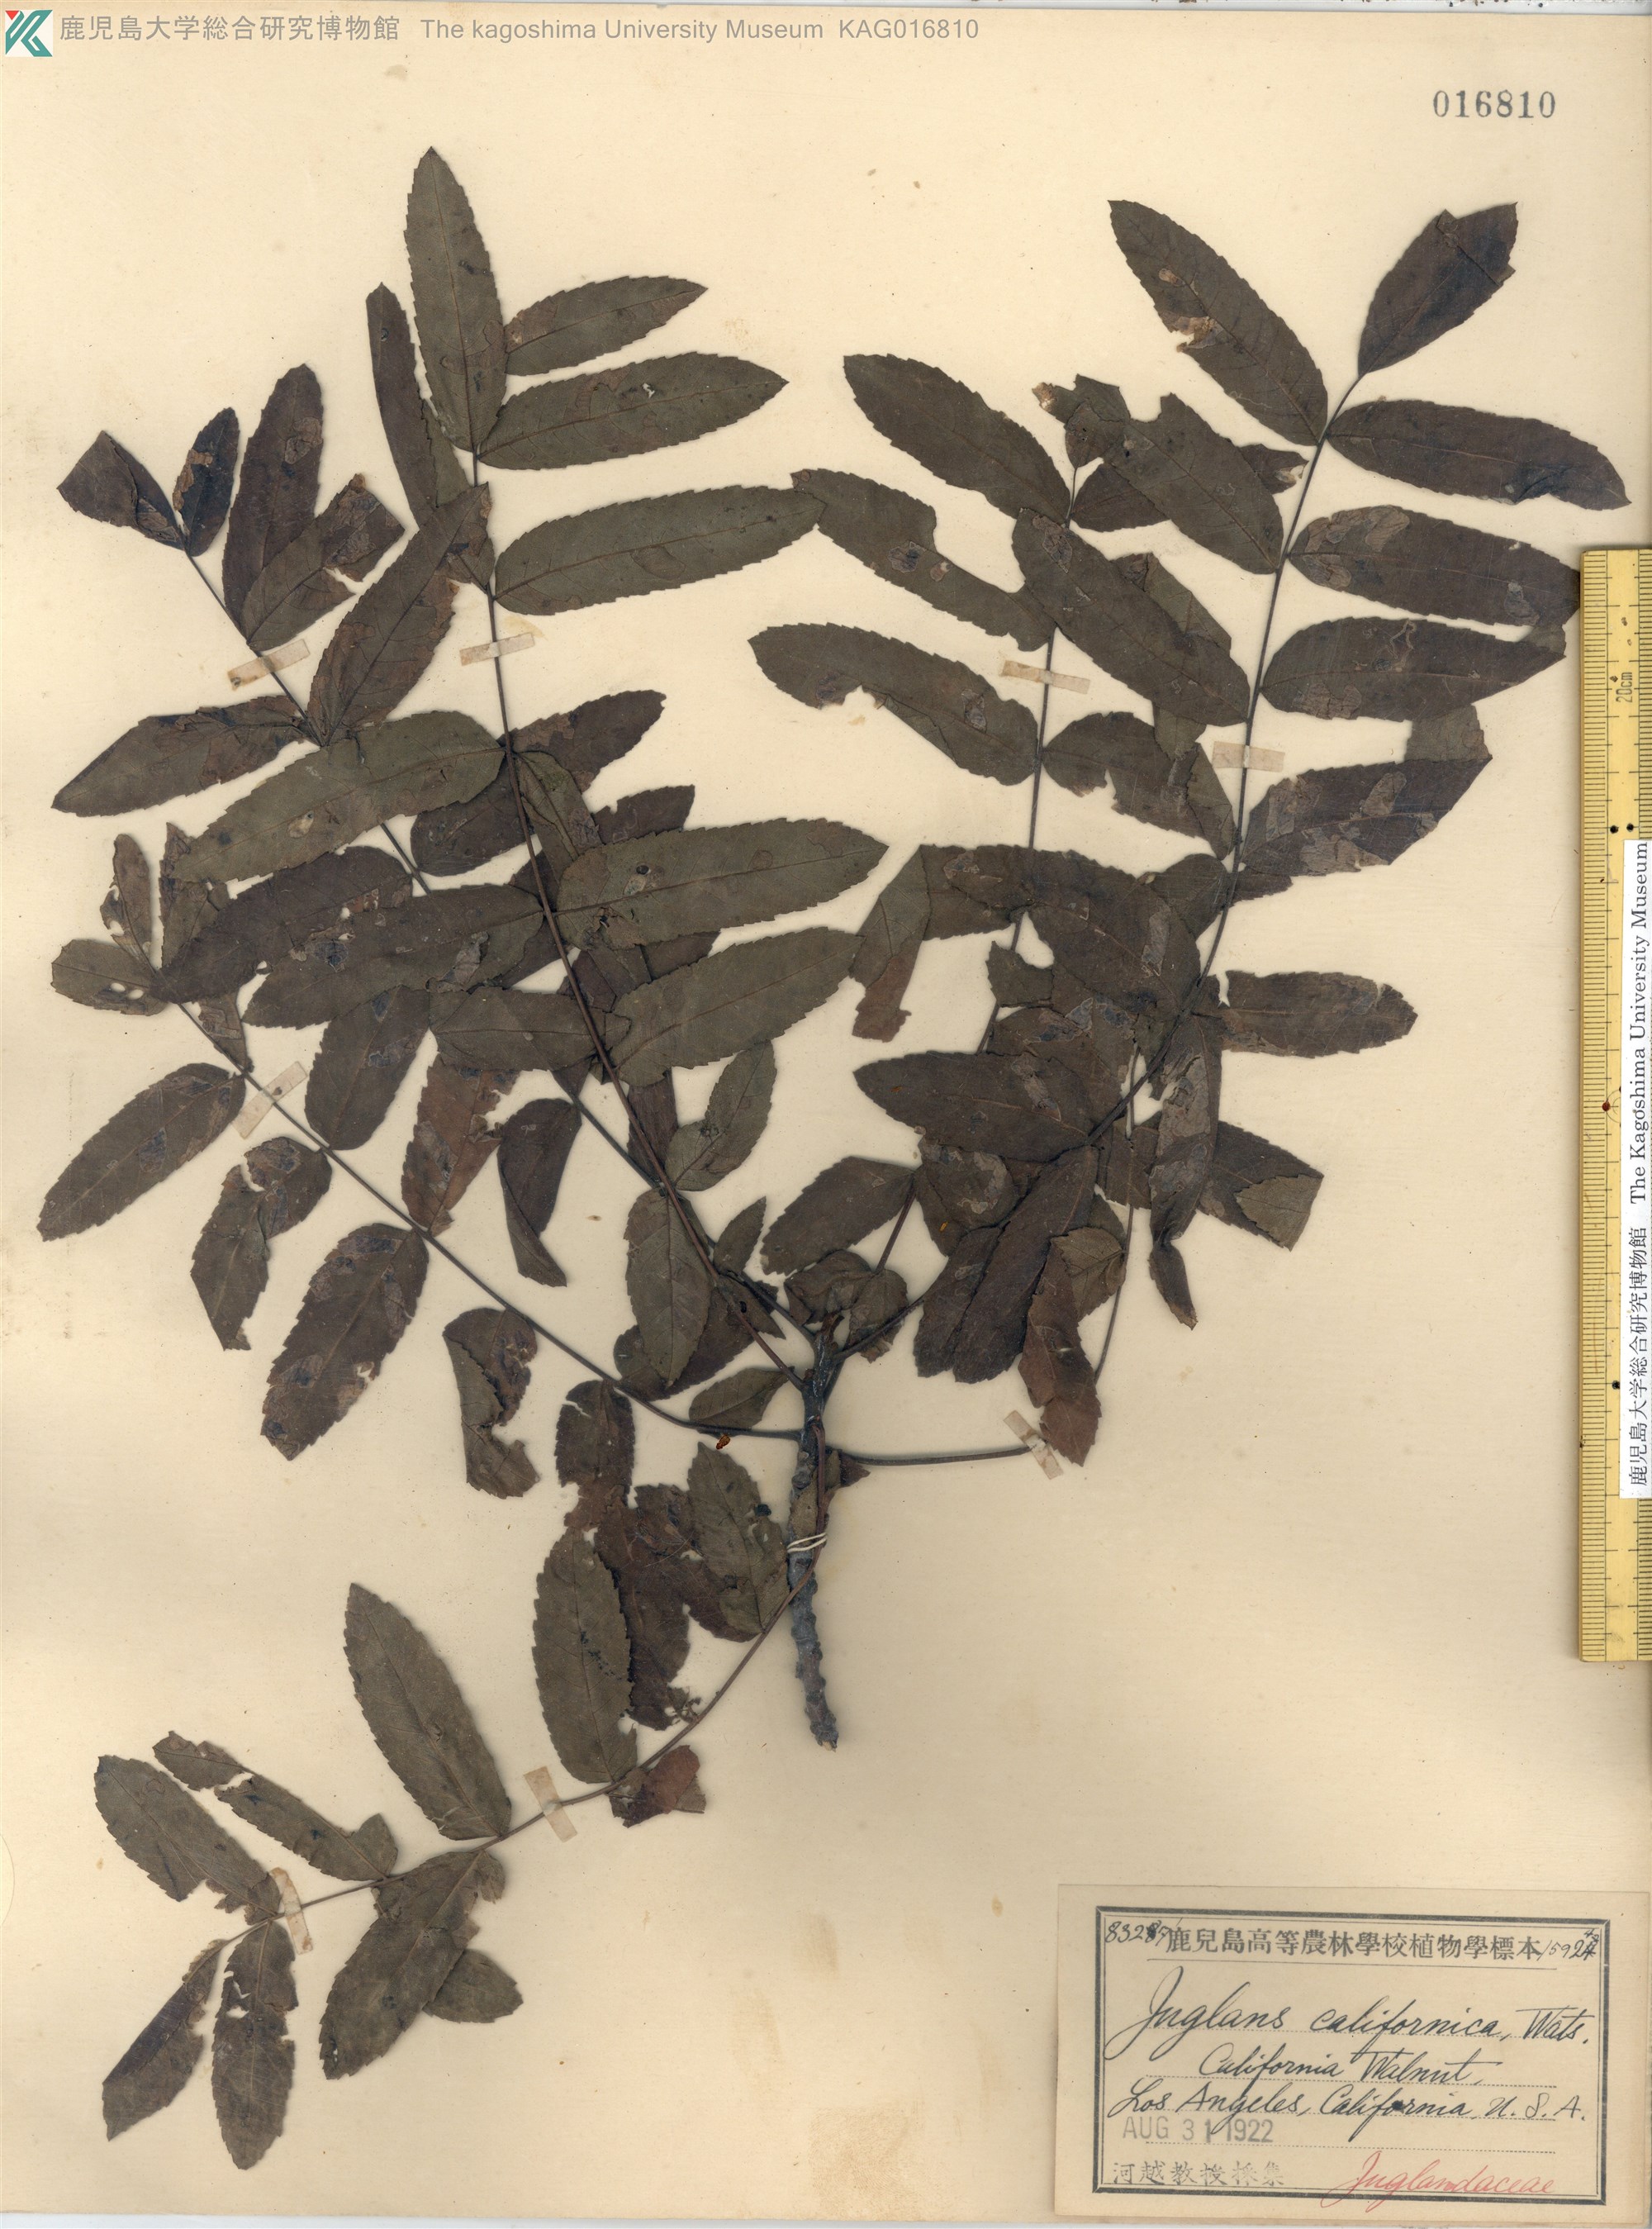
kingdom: Plantae
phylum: Tracheophyta
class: Magnoliopsida
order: Fagales
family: Juglandaceae
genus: Juglans
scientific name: Juglans californica
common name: Southern california black walnut
